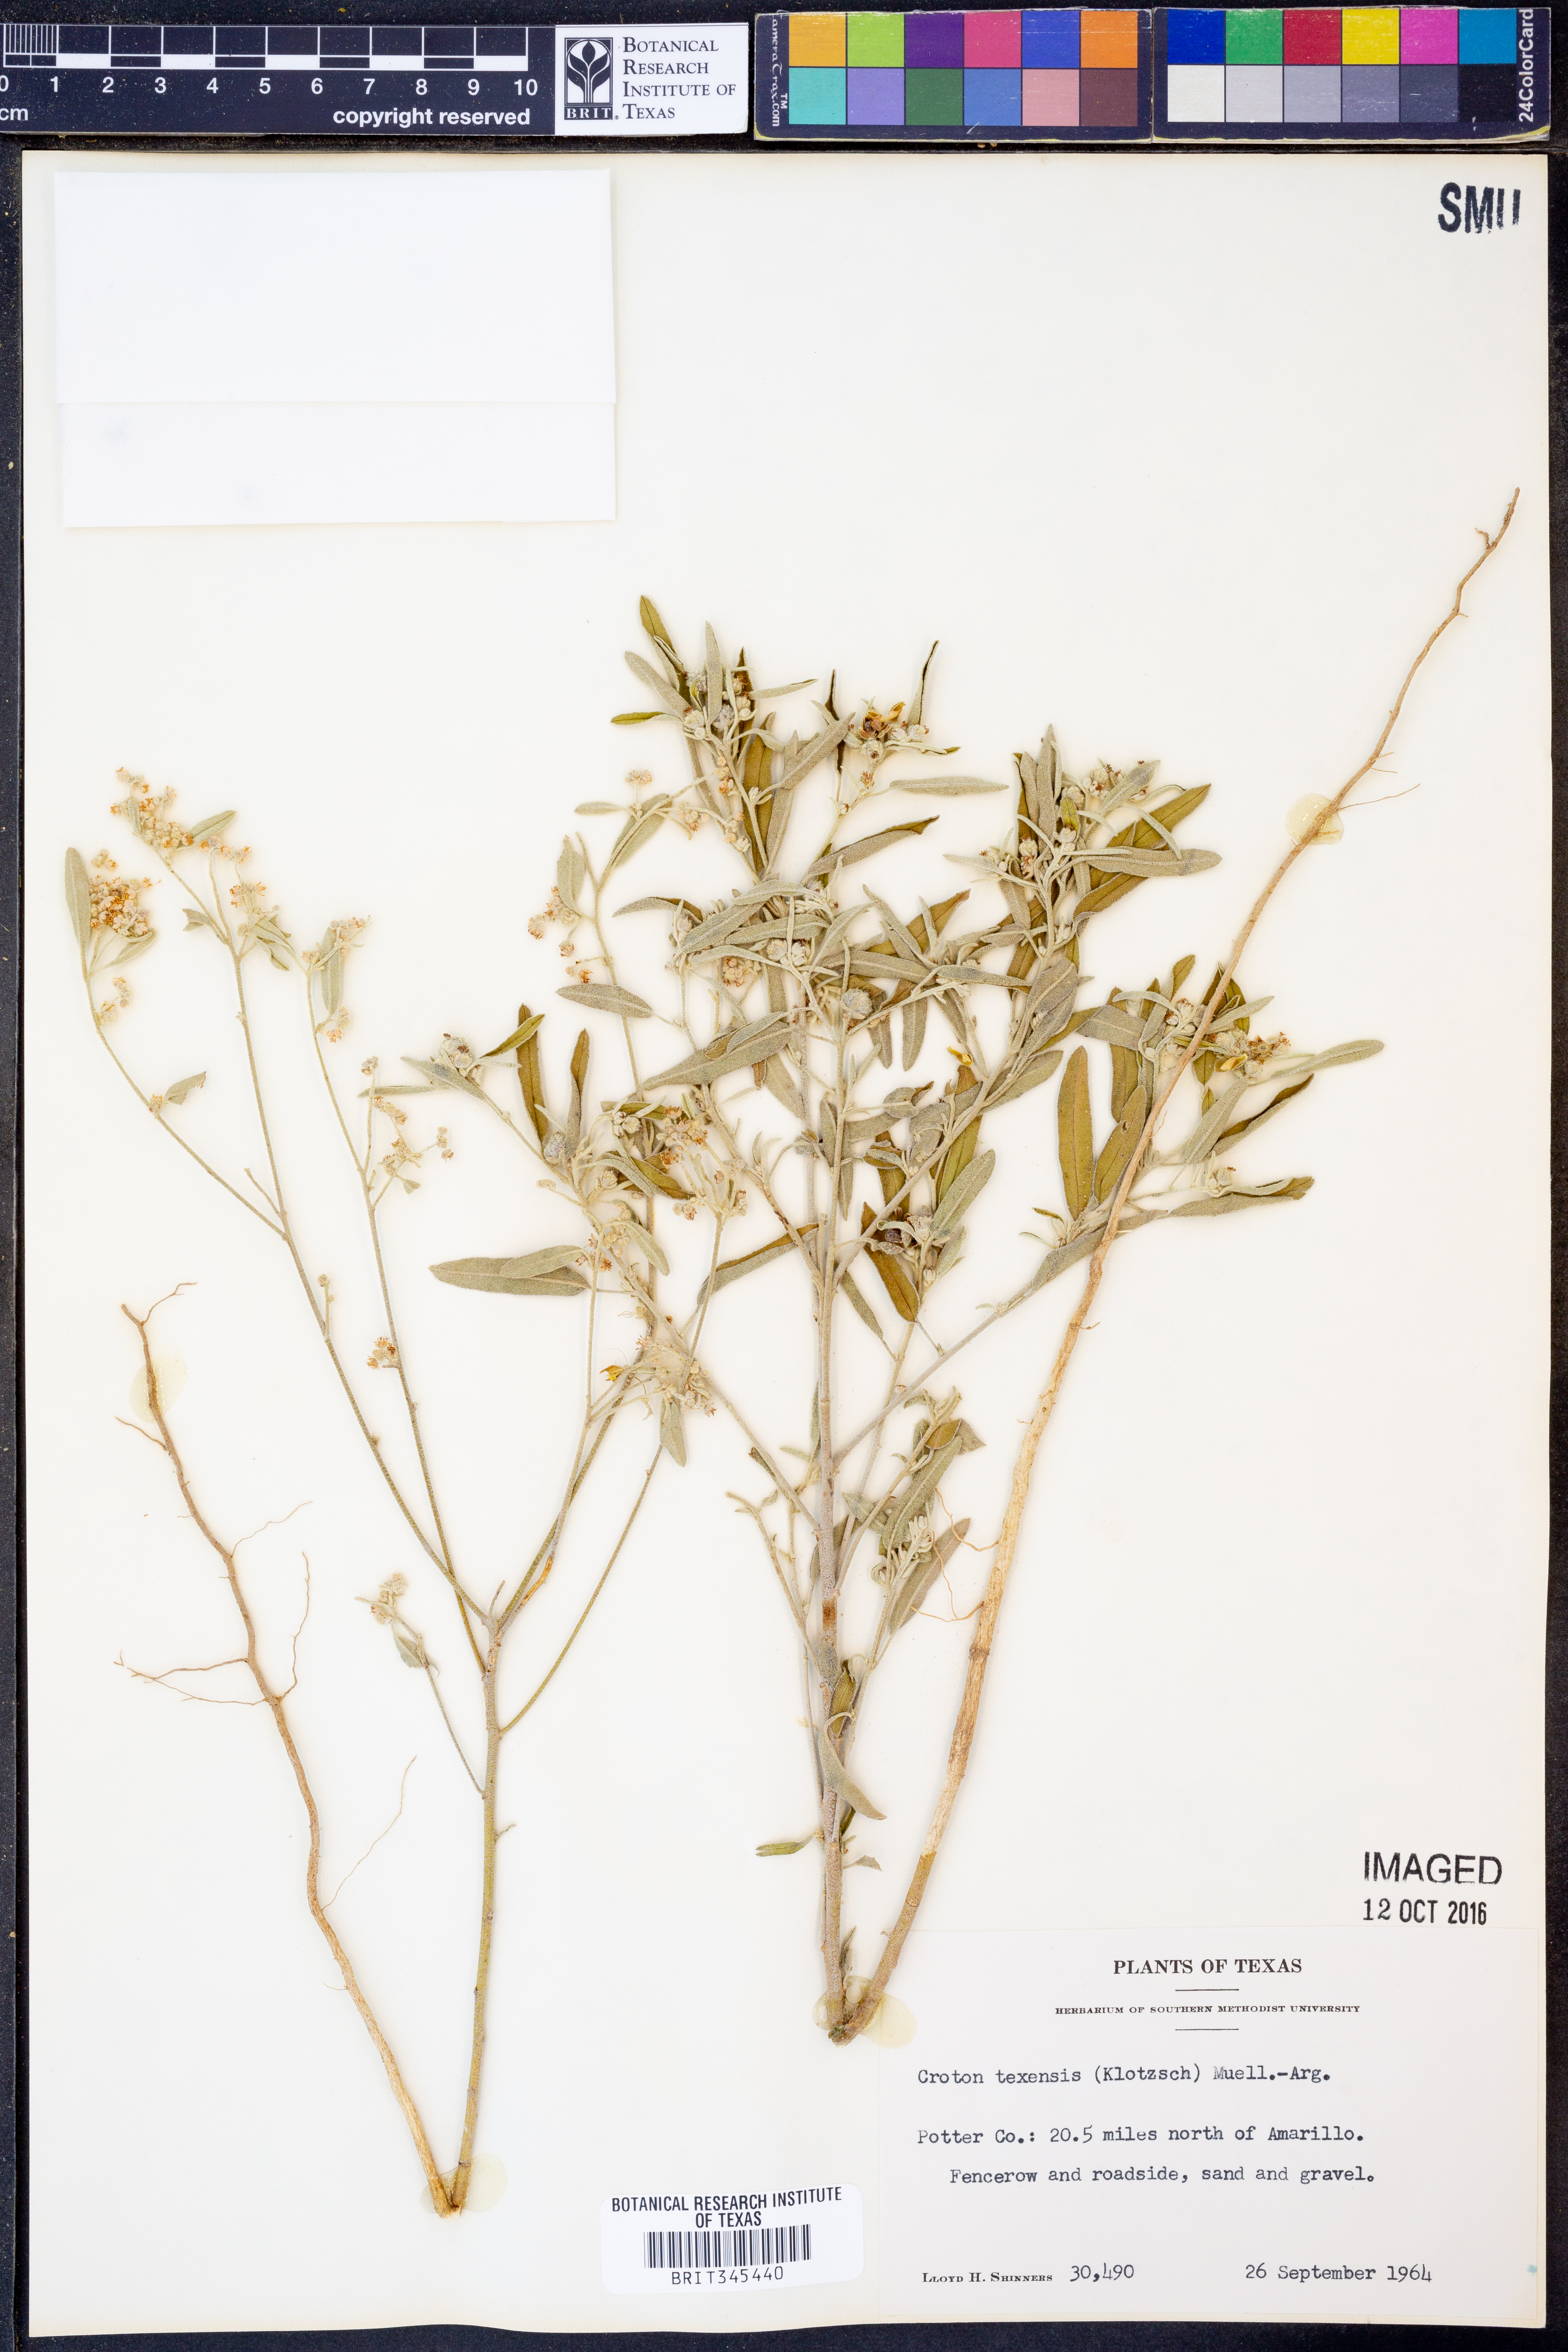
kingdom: Plantae
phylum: Tracheophyta
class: Magnoliopsida
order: Malpighiales
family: Euphorbiaceae
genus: Croton
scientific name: Croton texensis
